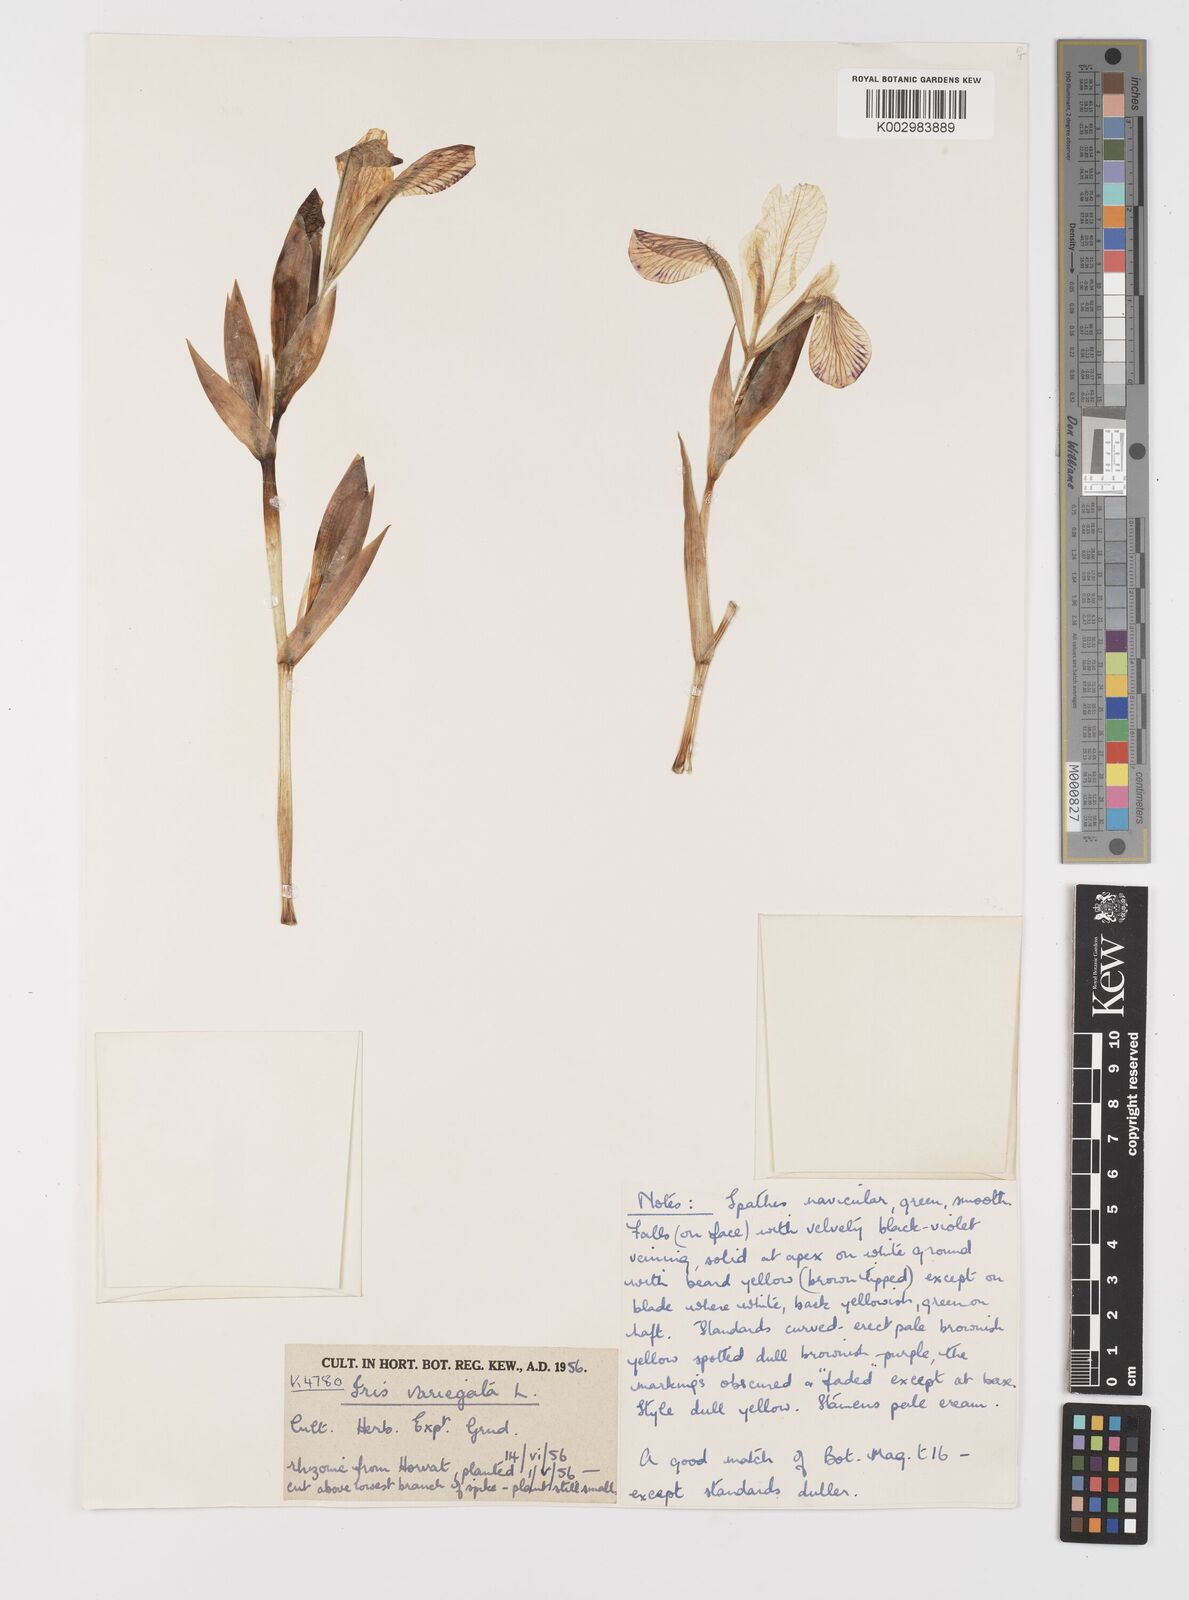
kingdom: Plantae
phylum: Tracheophyta
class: Liliopsida
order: Asparagales
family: Iridaceae
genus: Iris
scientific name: Iris variegata
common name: Hungarian iris
